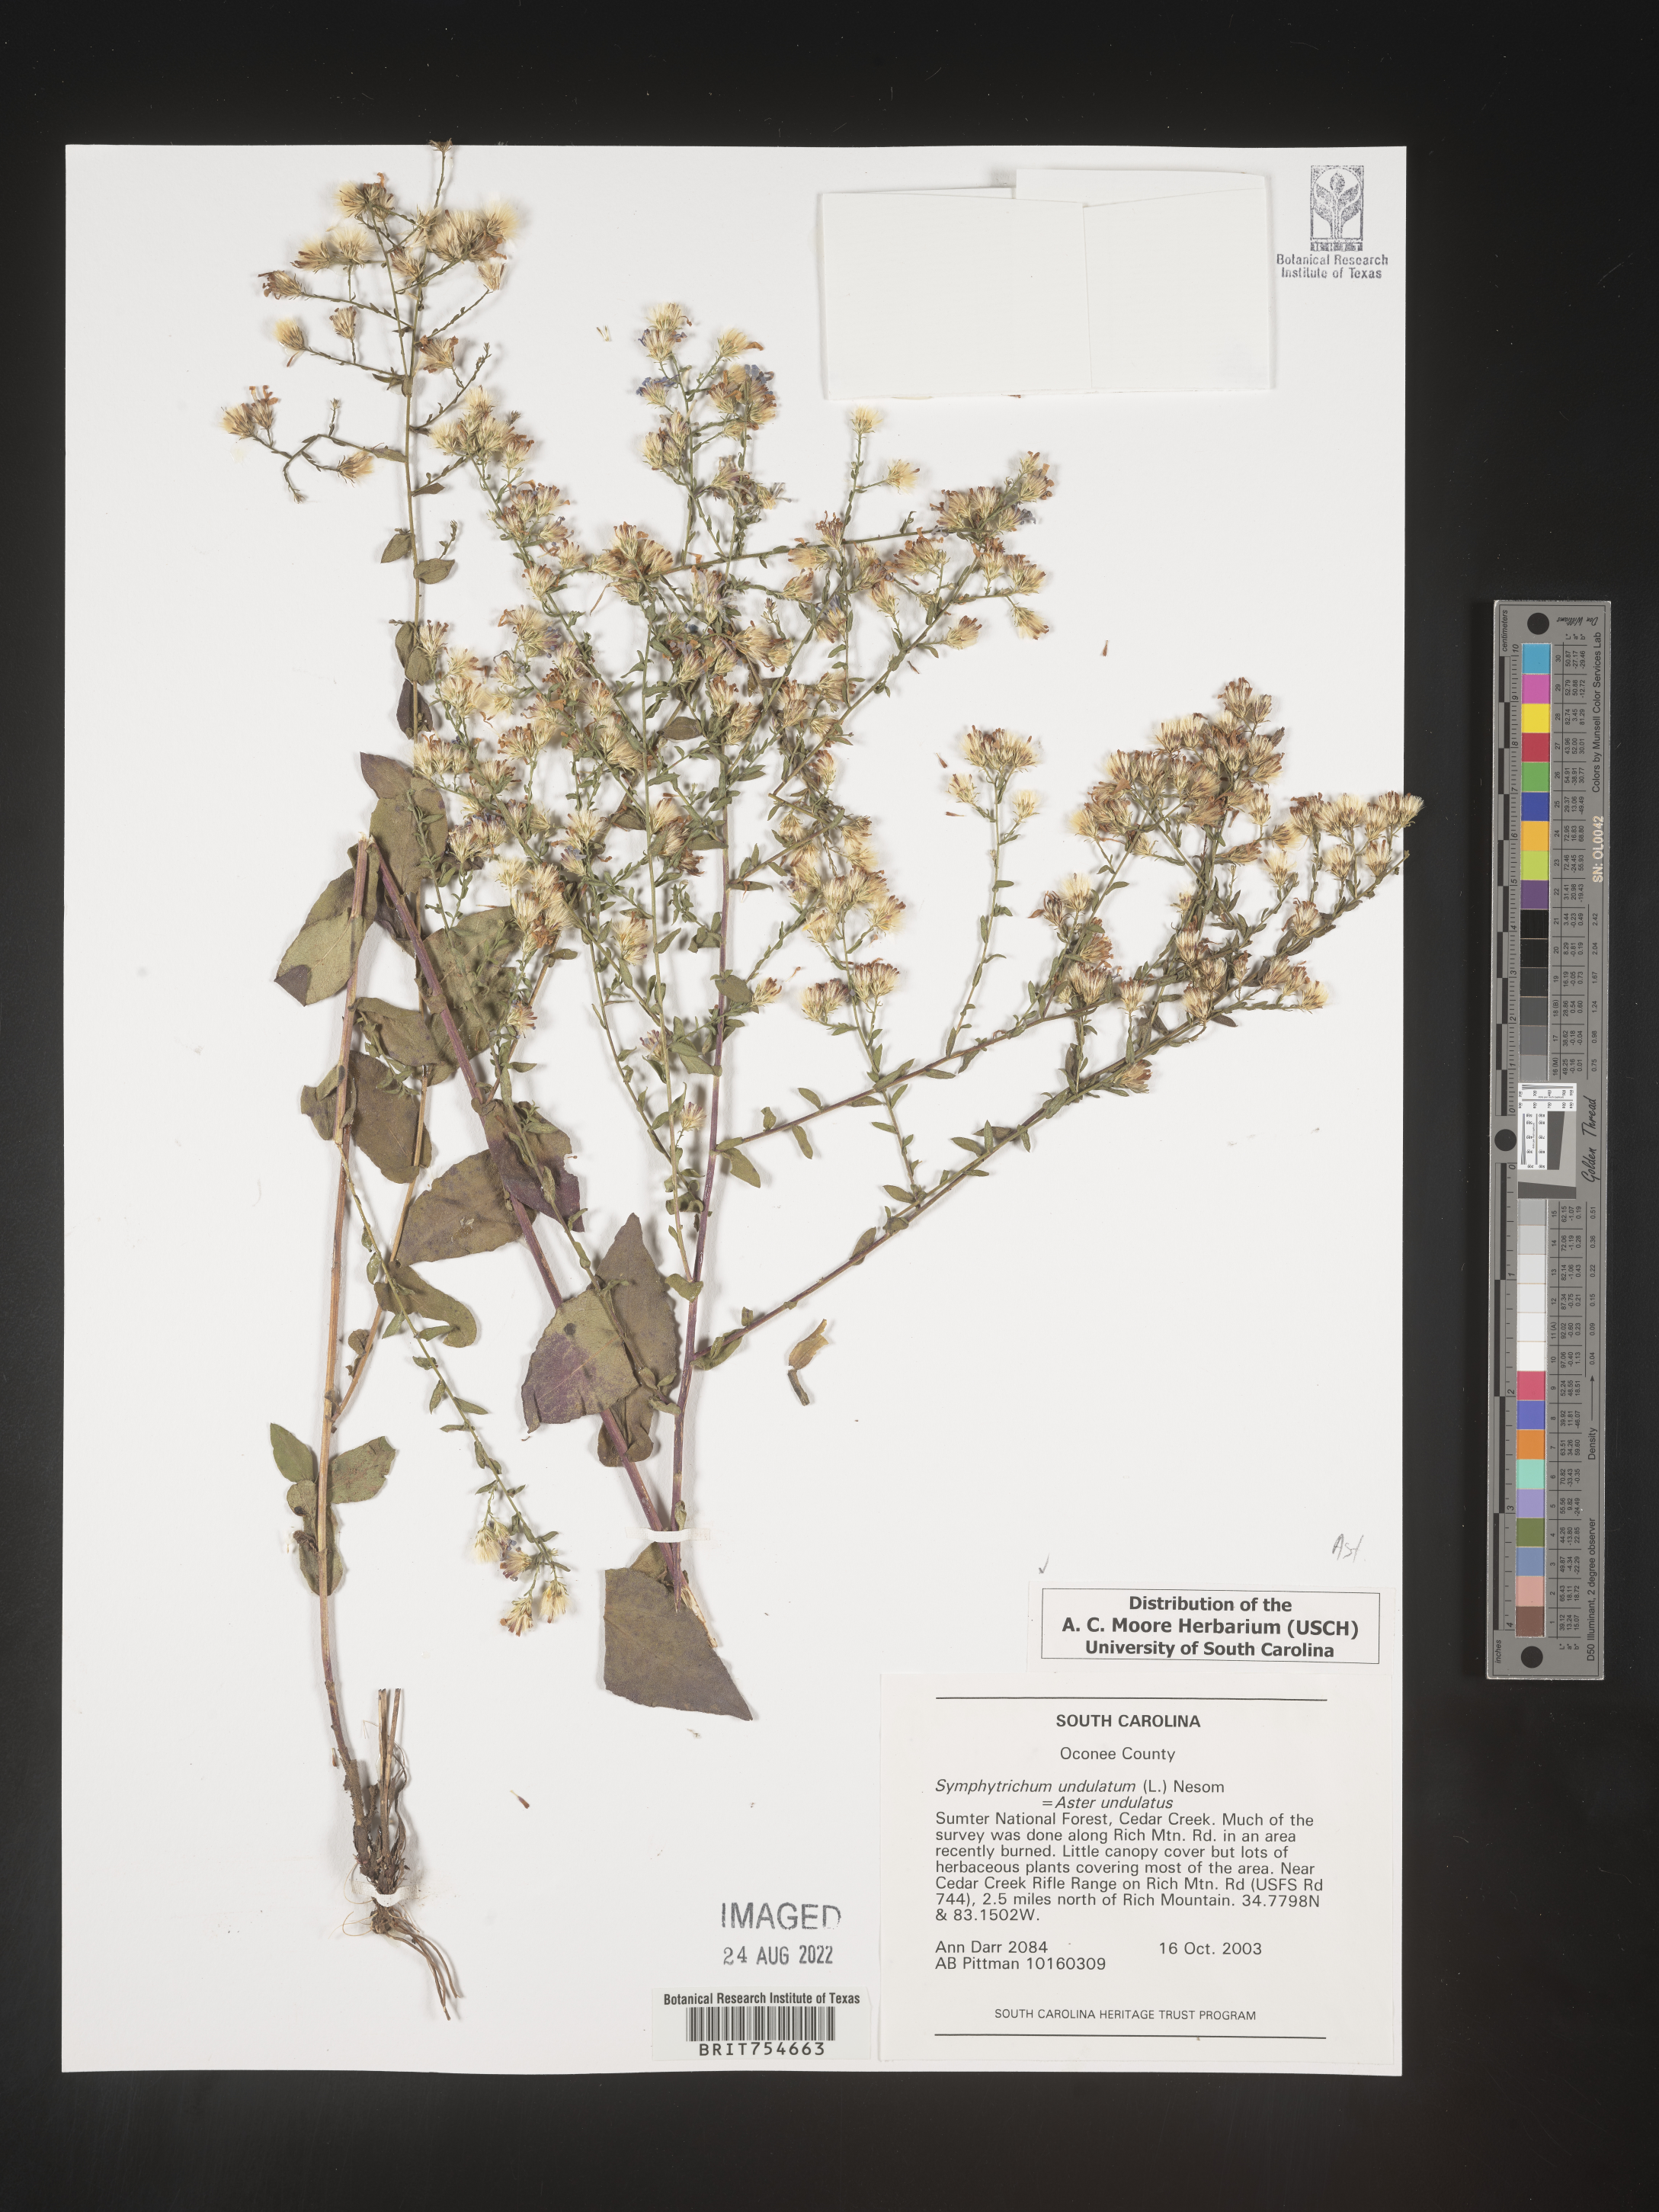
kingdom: Plantae
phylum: Tracheophyta
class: Magnoliopsida
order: Asterales
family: Asteraceae
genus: Symphyotrichum
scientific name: Symphyotrichum undulatum
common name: Clasping heart-leaf aster
